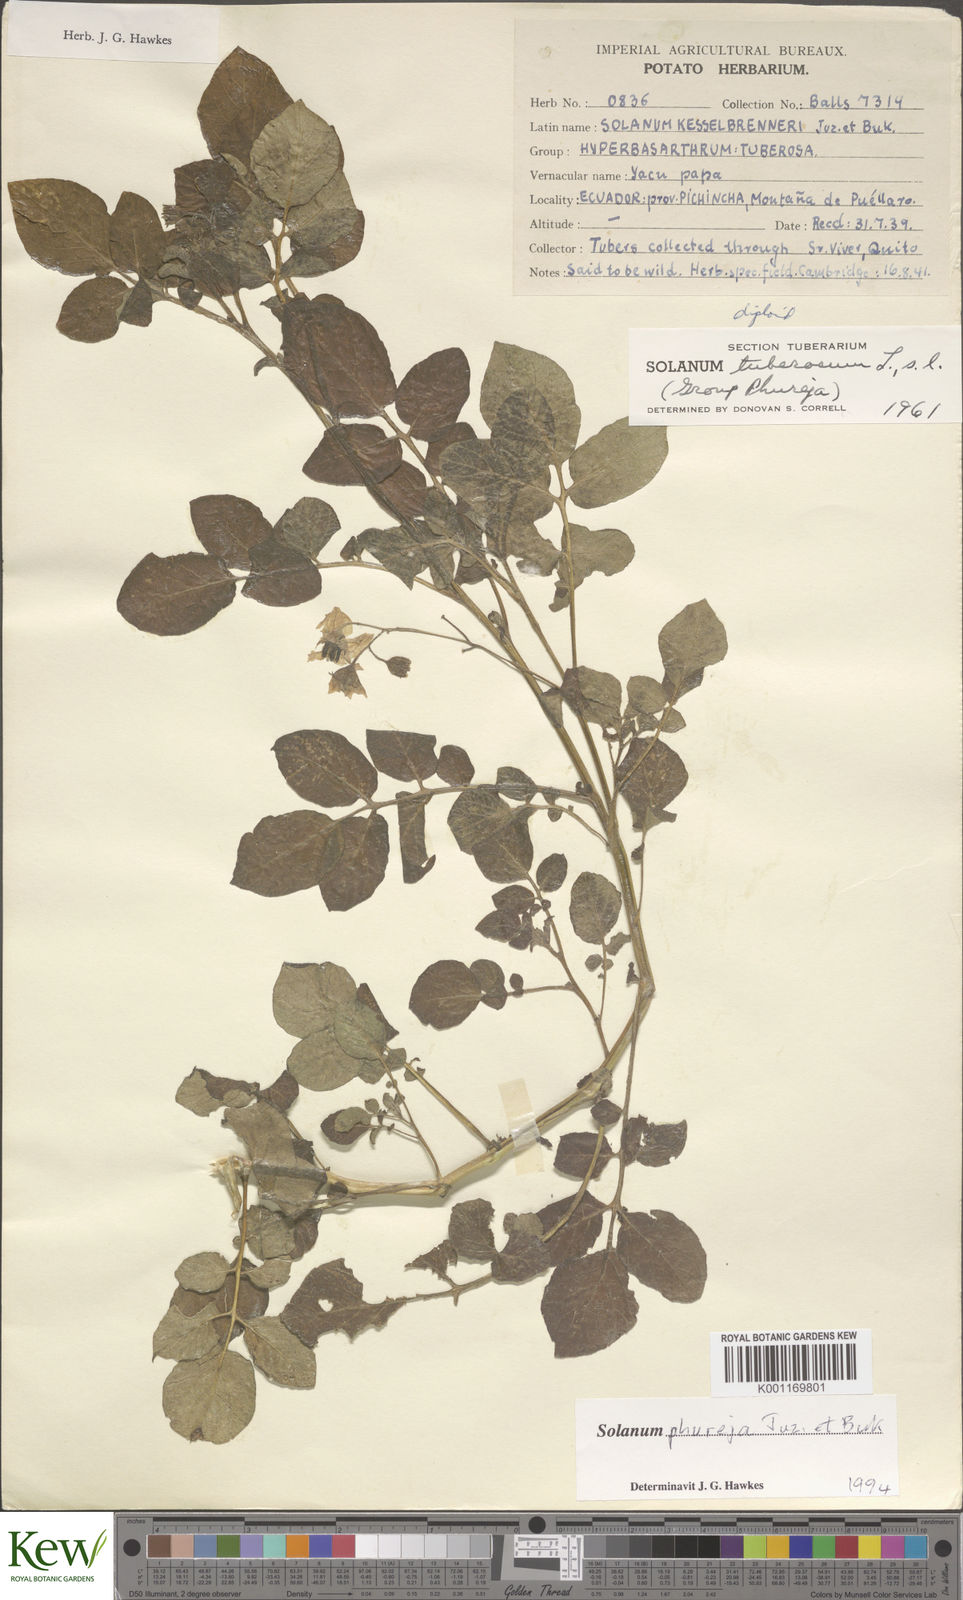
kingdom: Plantae
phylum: Tracheophyta
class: Magnoliopsida
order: Solanales
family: Solanaceae
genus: Solanum
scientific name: Solanum tuberosum
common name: Potato
